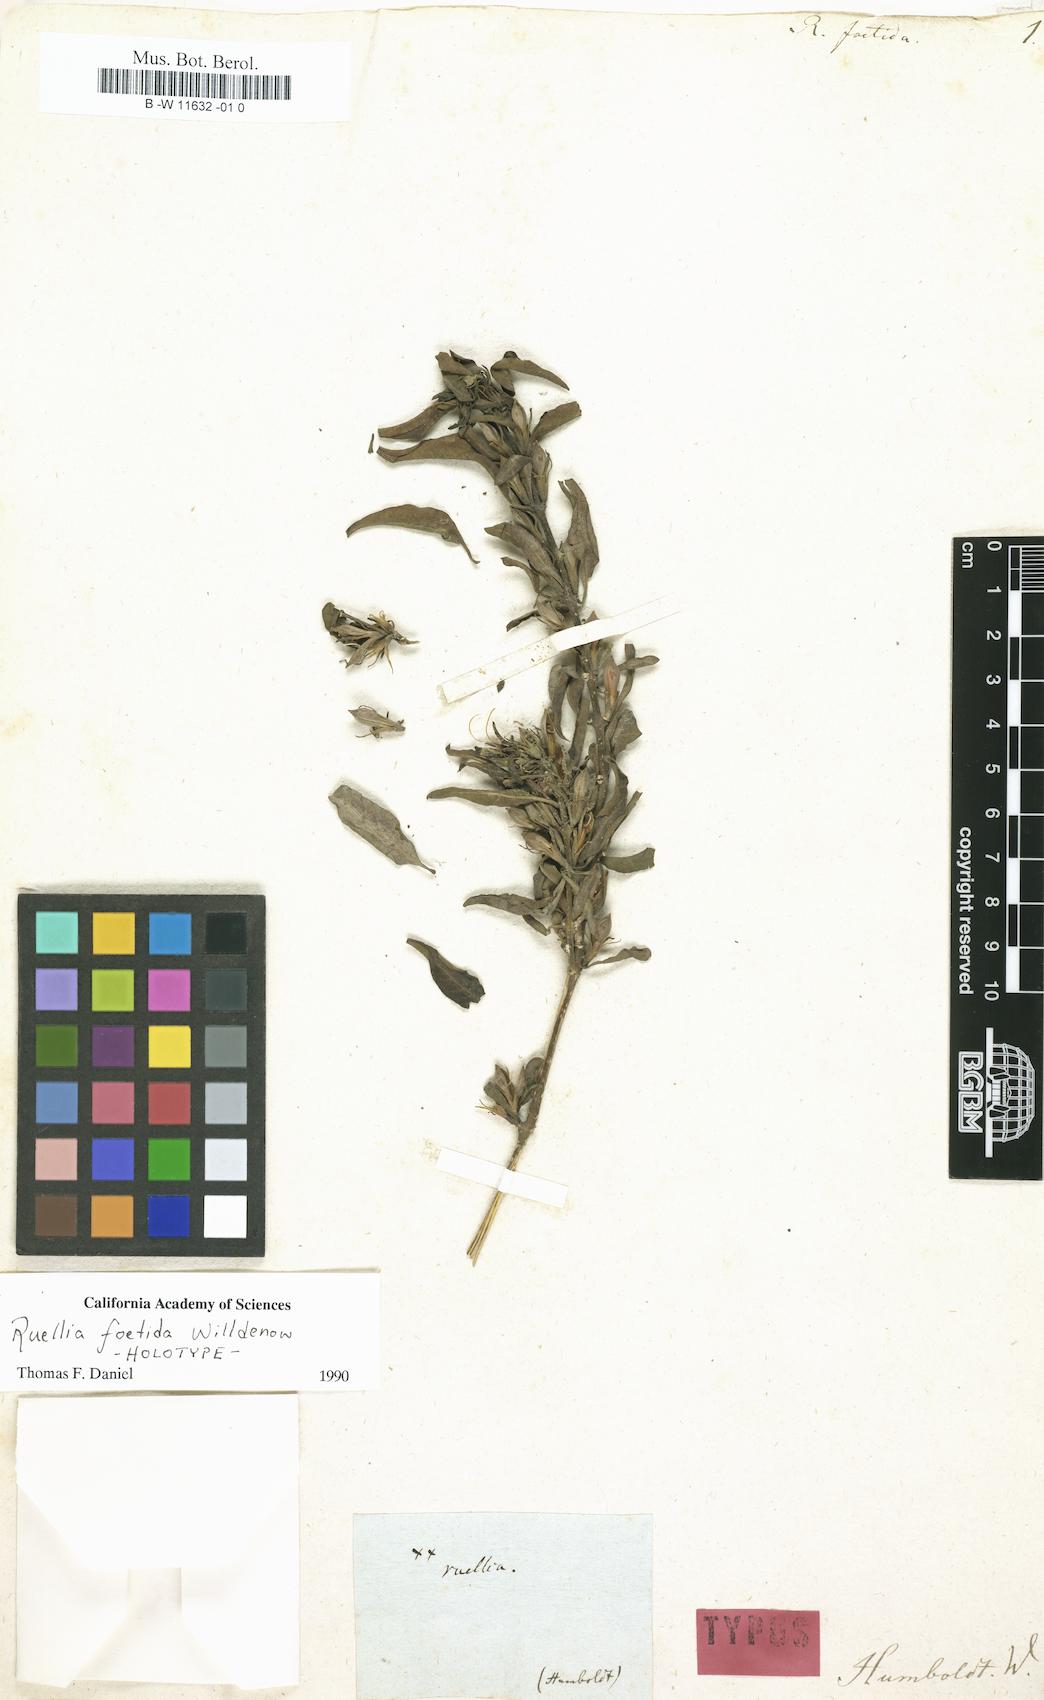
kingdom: Plantae
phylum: Tracheophyta
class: Magnoliopsida
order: Lamiales
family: Acanthaceae
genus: Ruellia
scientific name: Ruellia foetida
